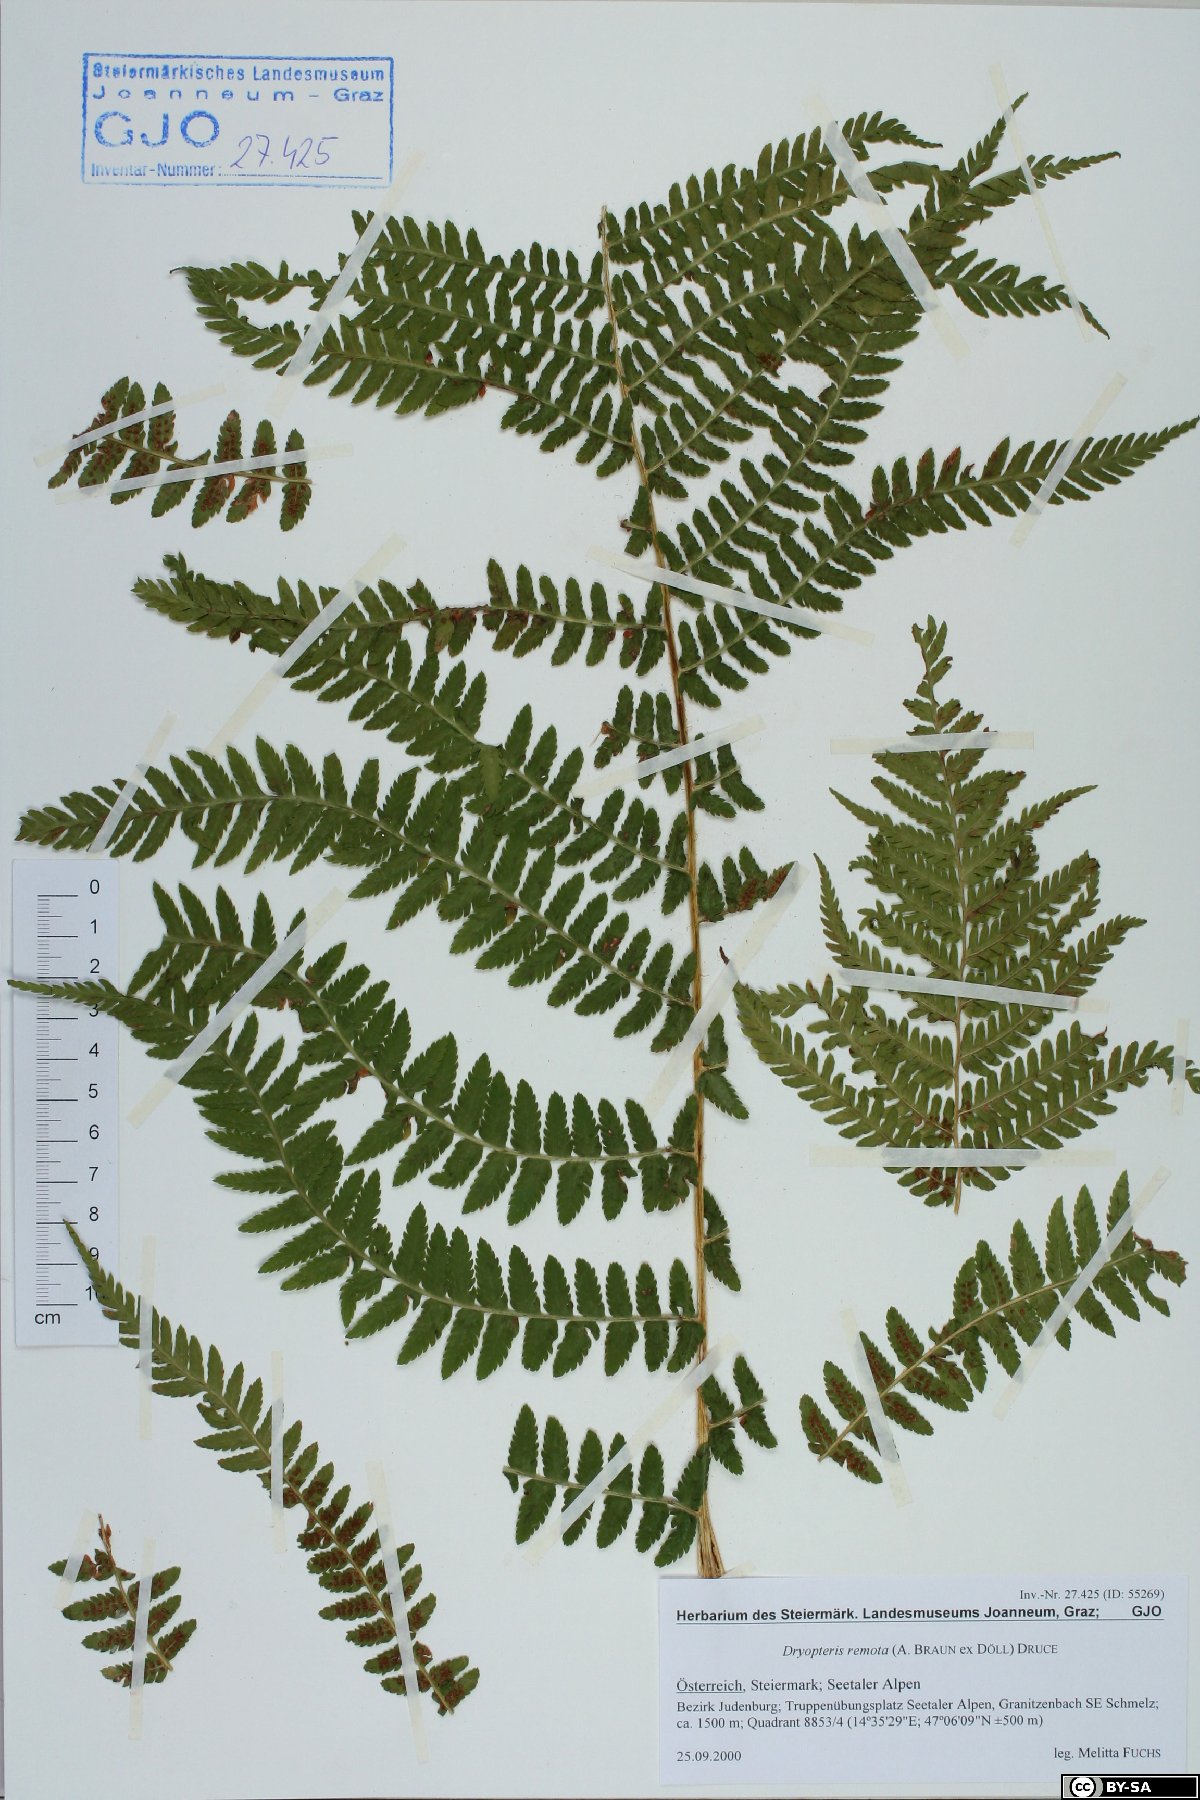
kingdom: Plantae
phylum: Tracheophyta
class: Polypodiopsida
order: Polypodiales
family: Dryopteridaceae
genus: Dryopteris
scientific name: Dryopteris remota
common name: Scaly buckler-fern
